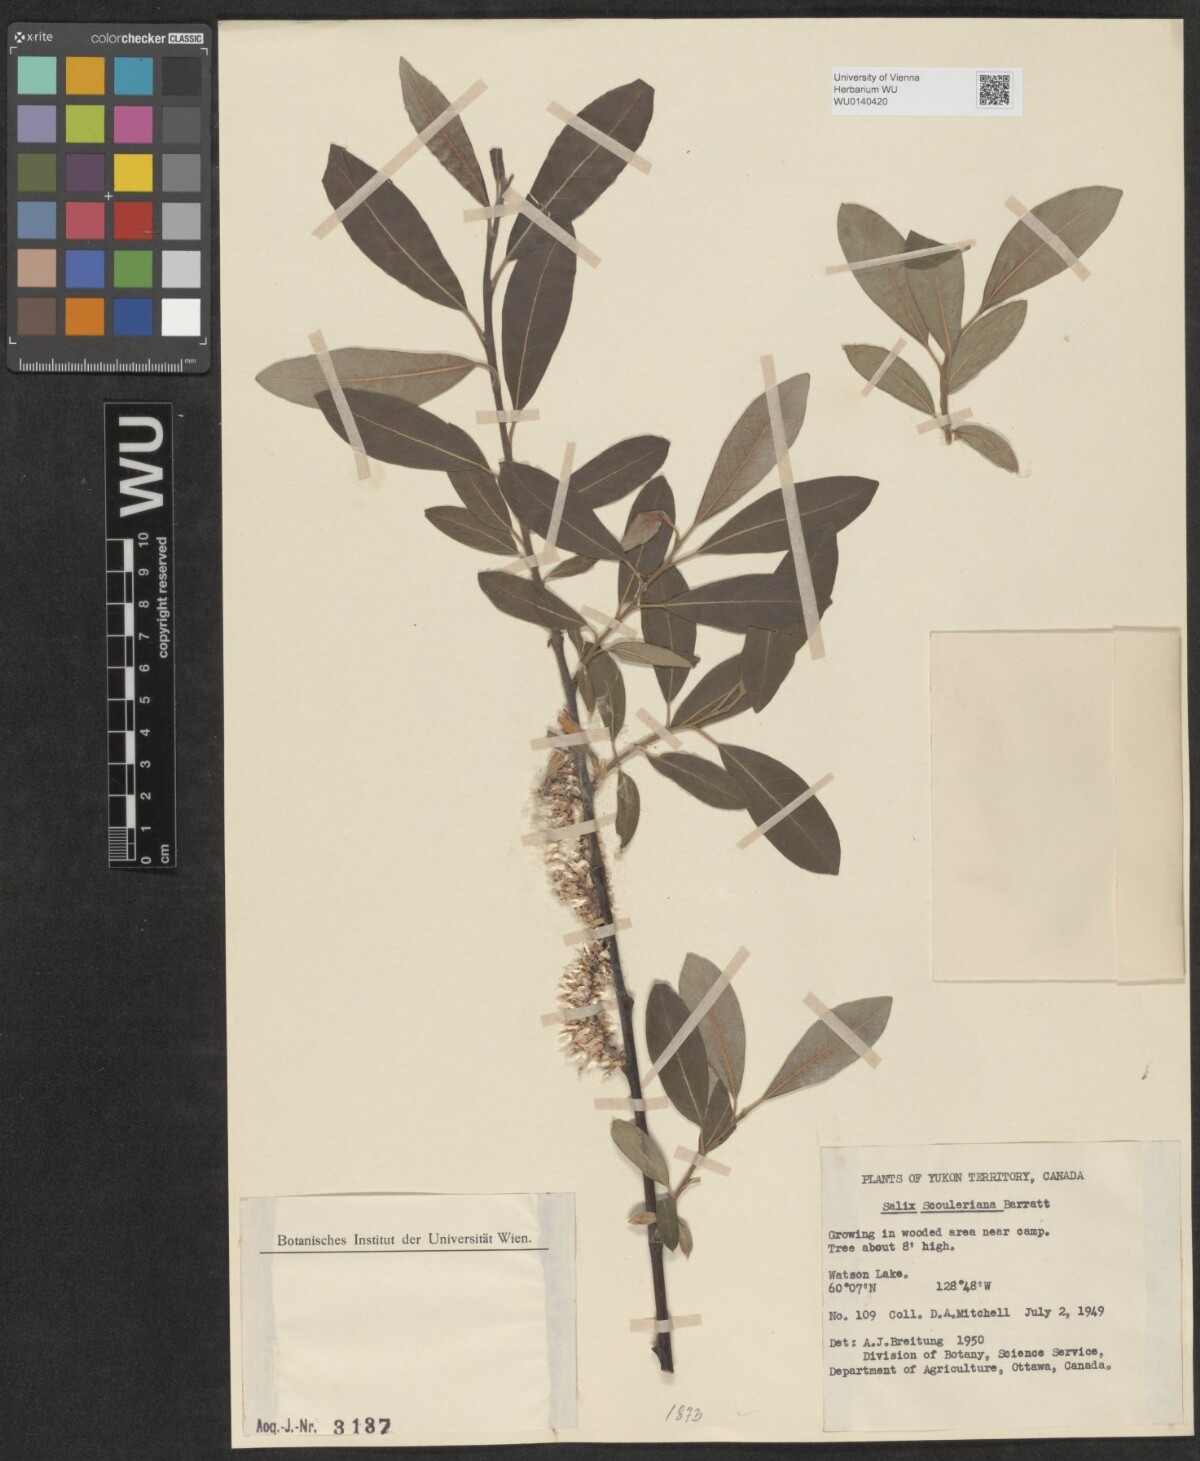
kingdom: Plantae
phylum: Tracheophyta
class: Magnoliopsida
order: Malpighiales
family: Salicaceae
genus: Salix
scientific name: Salix scouleriana
